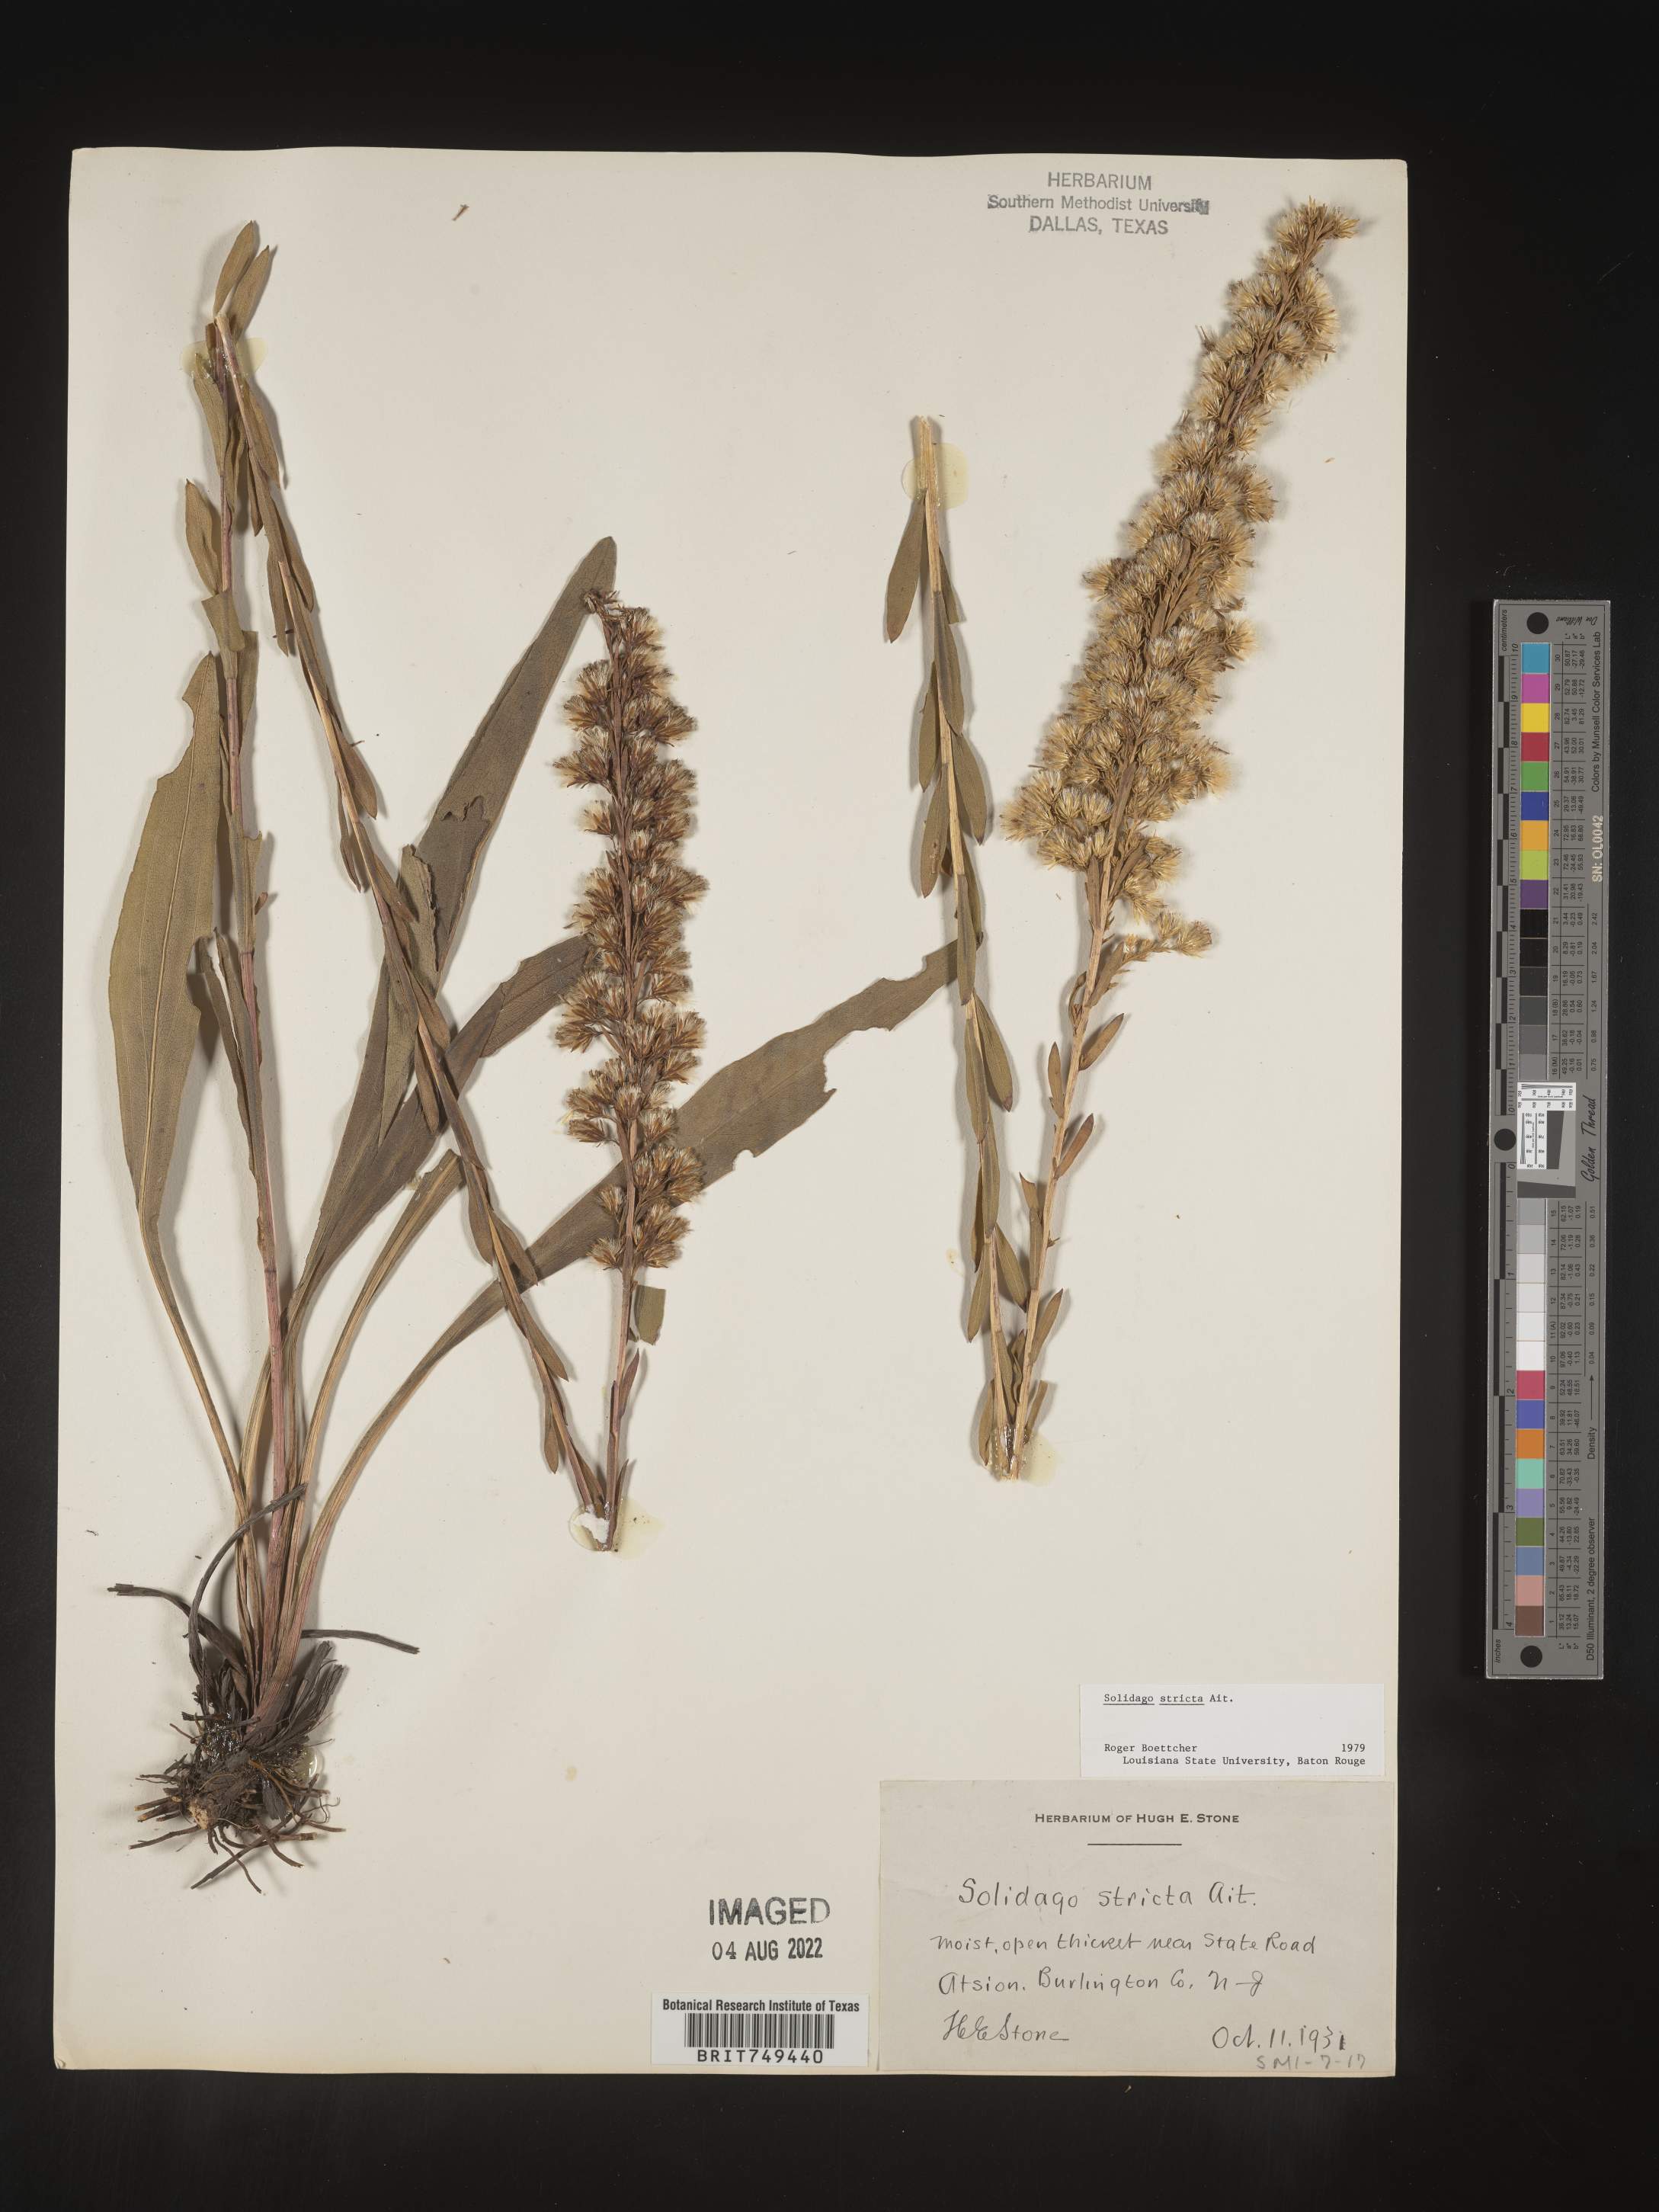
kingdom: Plantae
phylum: Tracheophyta
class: Magnoliopsida
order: Asterales
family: Asteraceae
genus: Solidago
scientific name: Solidago stricta
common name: Pine barren bog goldenrod
